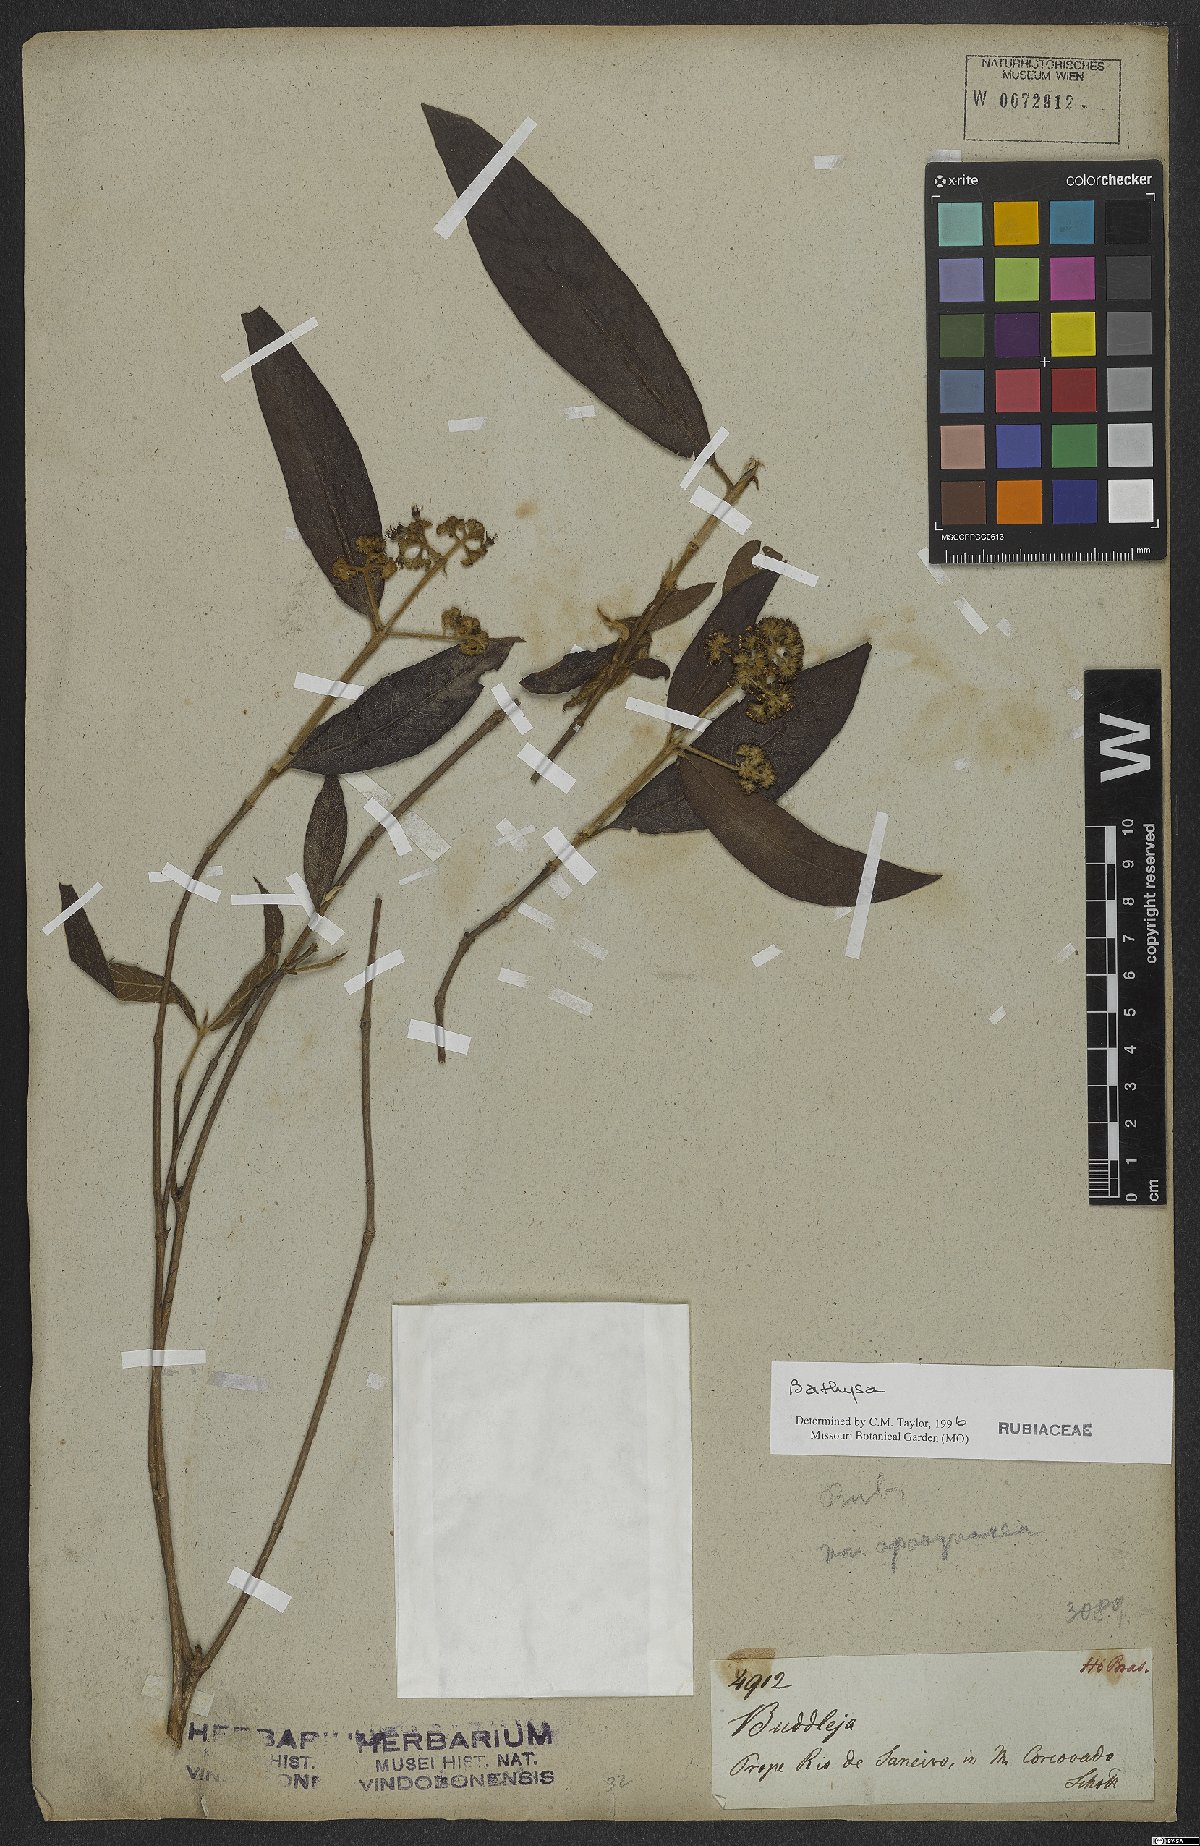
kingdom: Plantae
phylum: Tracheophyta
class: Magnoliopsida
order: Gentianales
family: Rubiaceae
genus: Bathysa
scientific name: Bathysa
